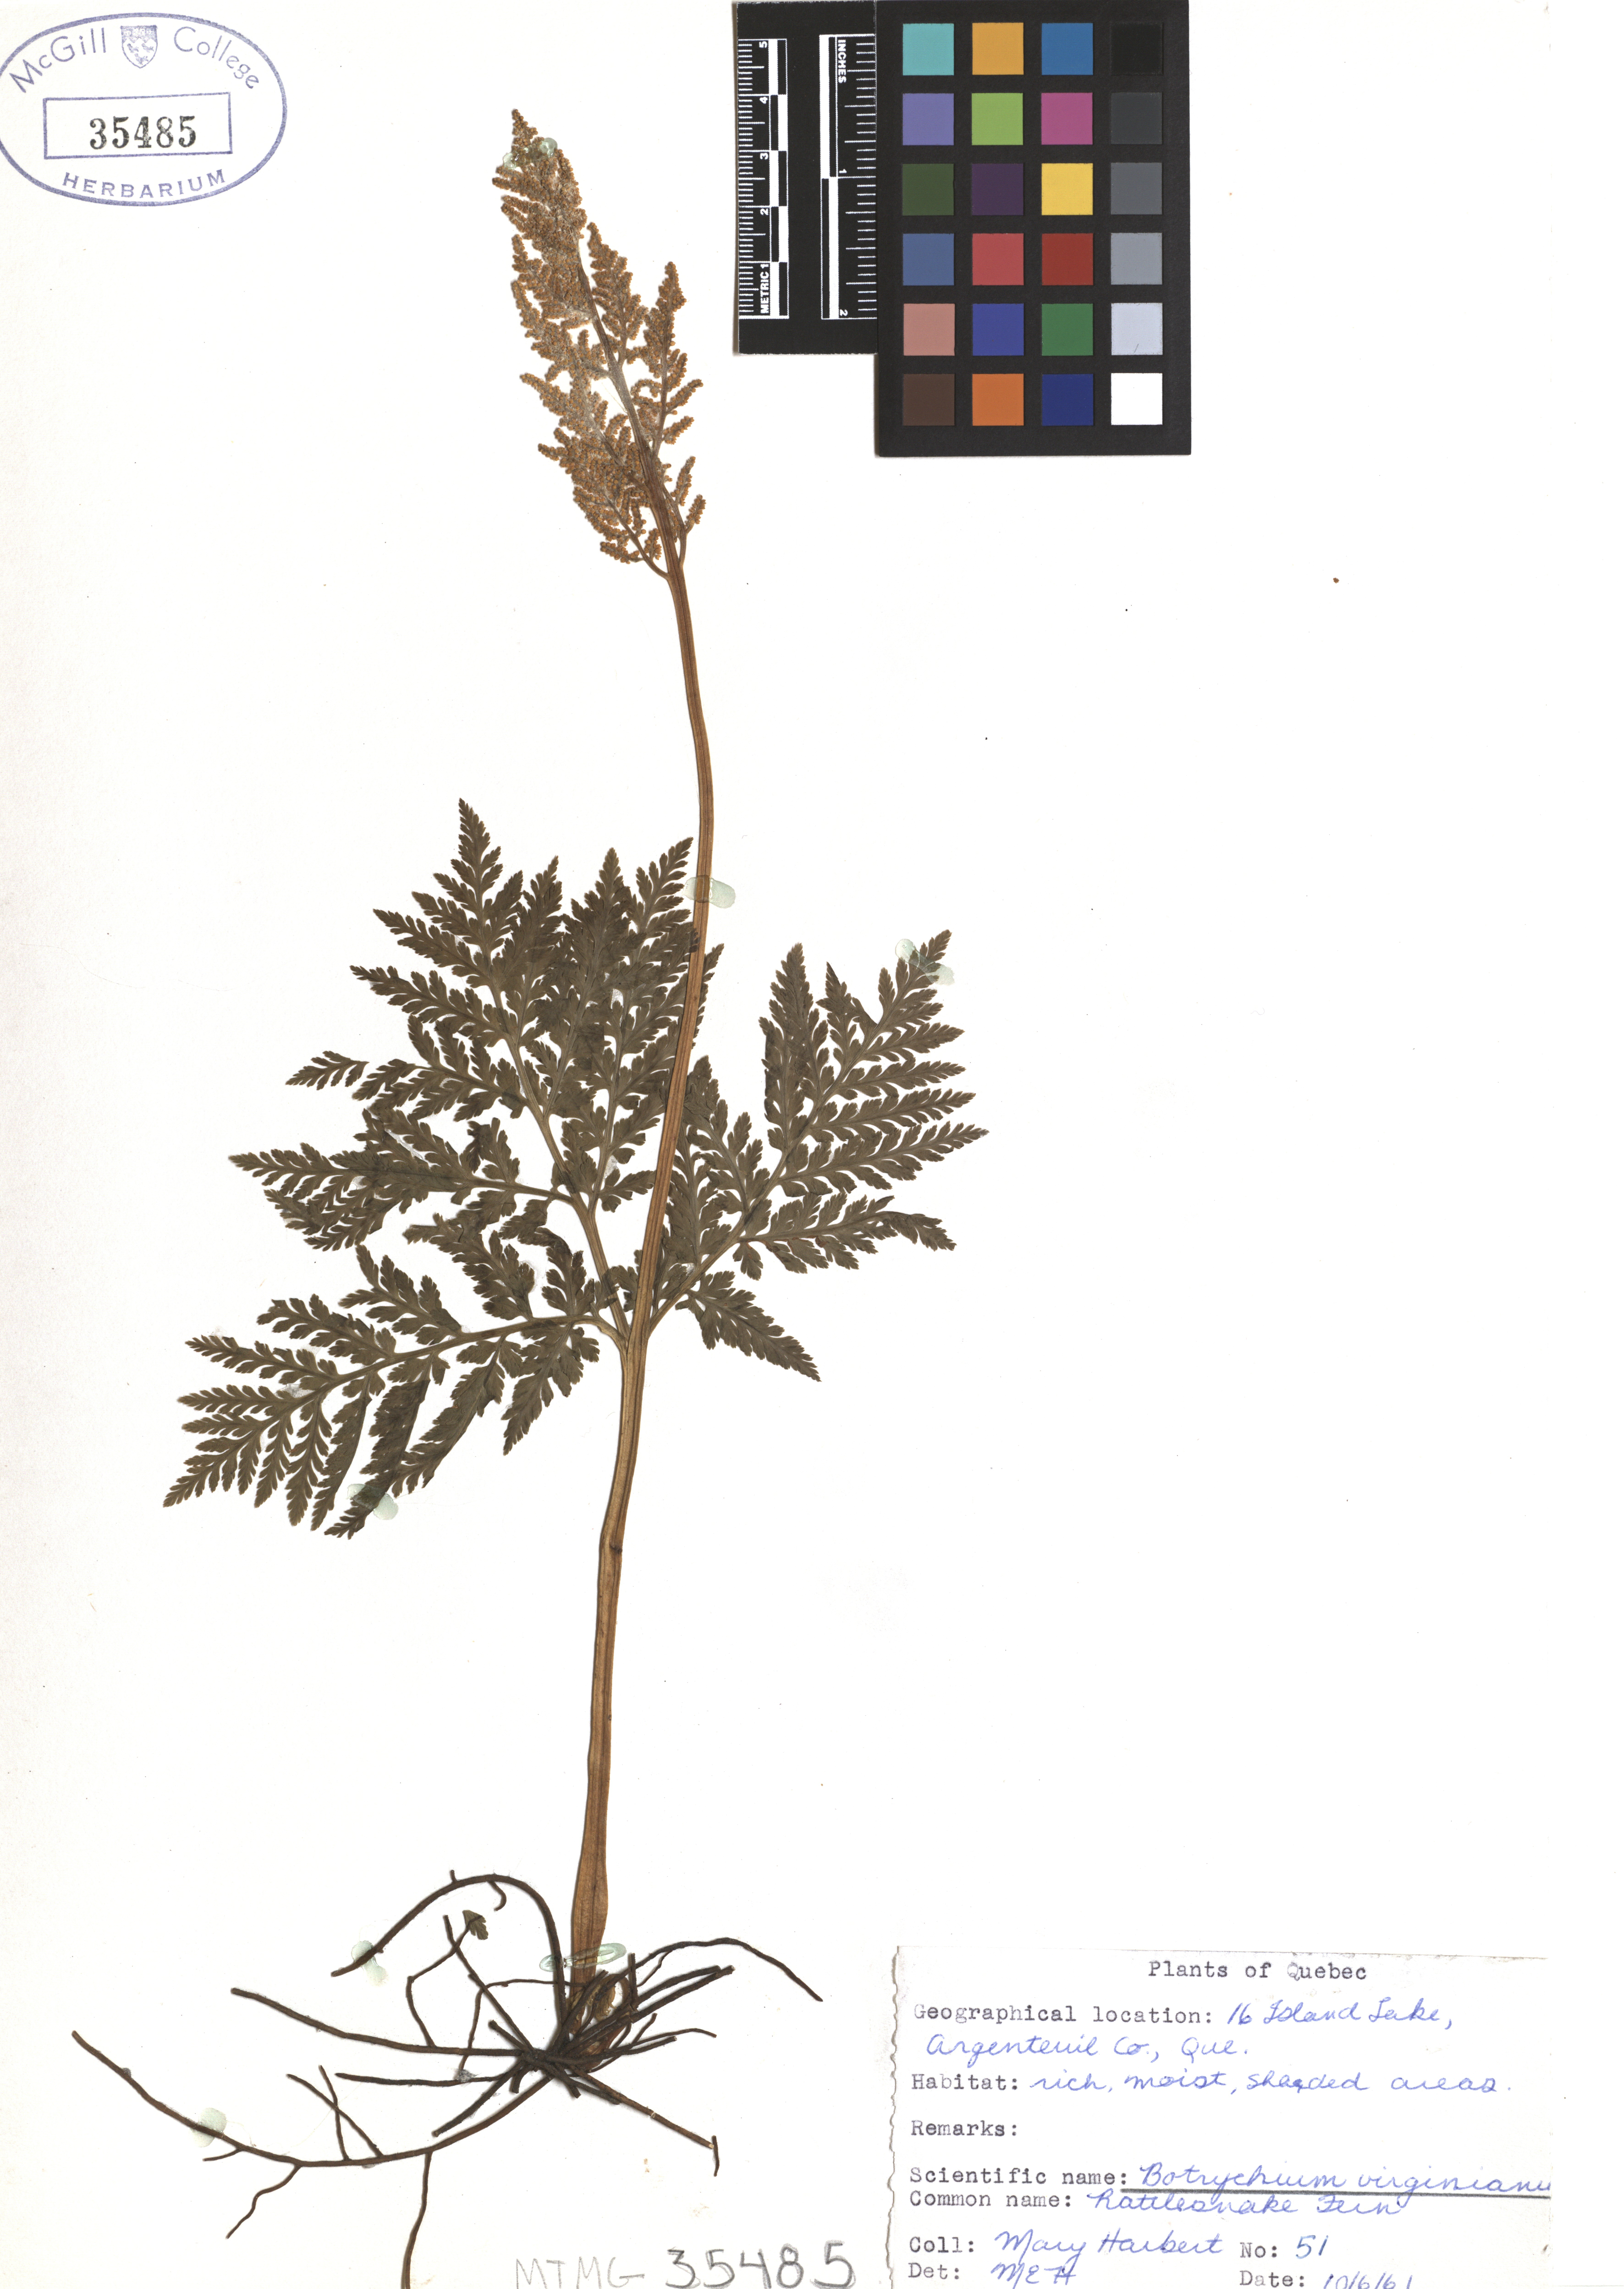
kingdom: Plantae
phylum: Tracheophyta
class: Polypodiopsida
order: Ophioglossales
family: Ophioglossaceae
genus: Botrypus
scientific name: Botrypus virginianus
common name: Common grapefern
